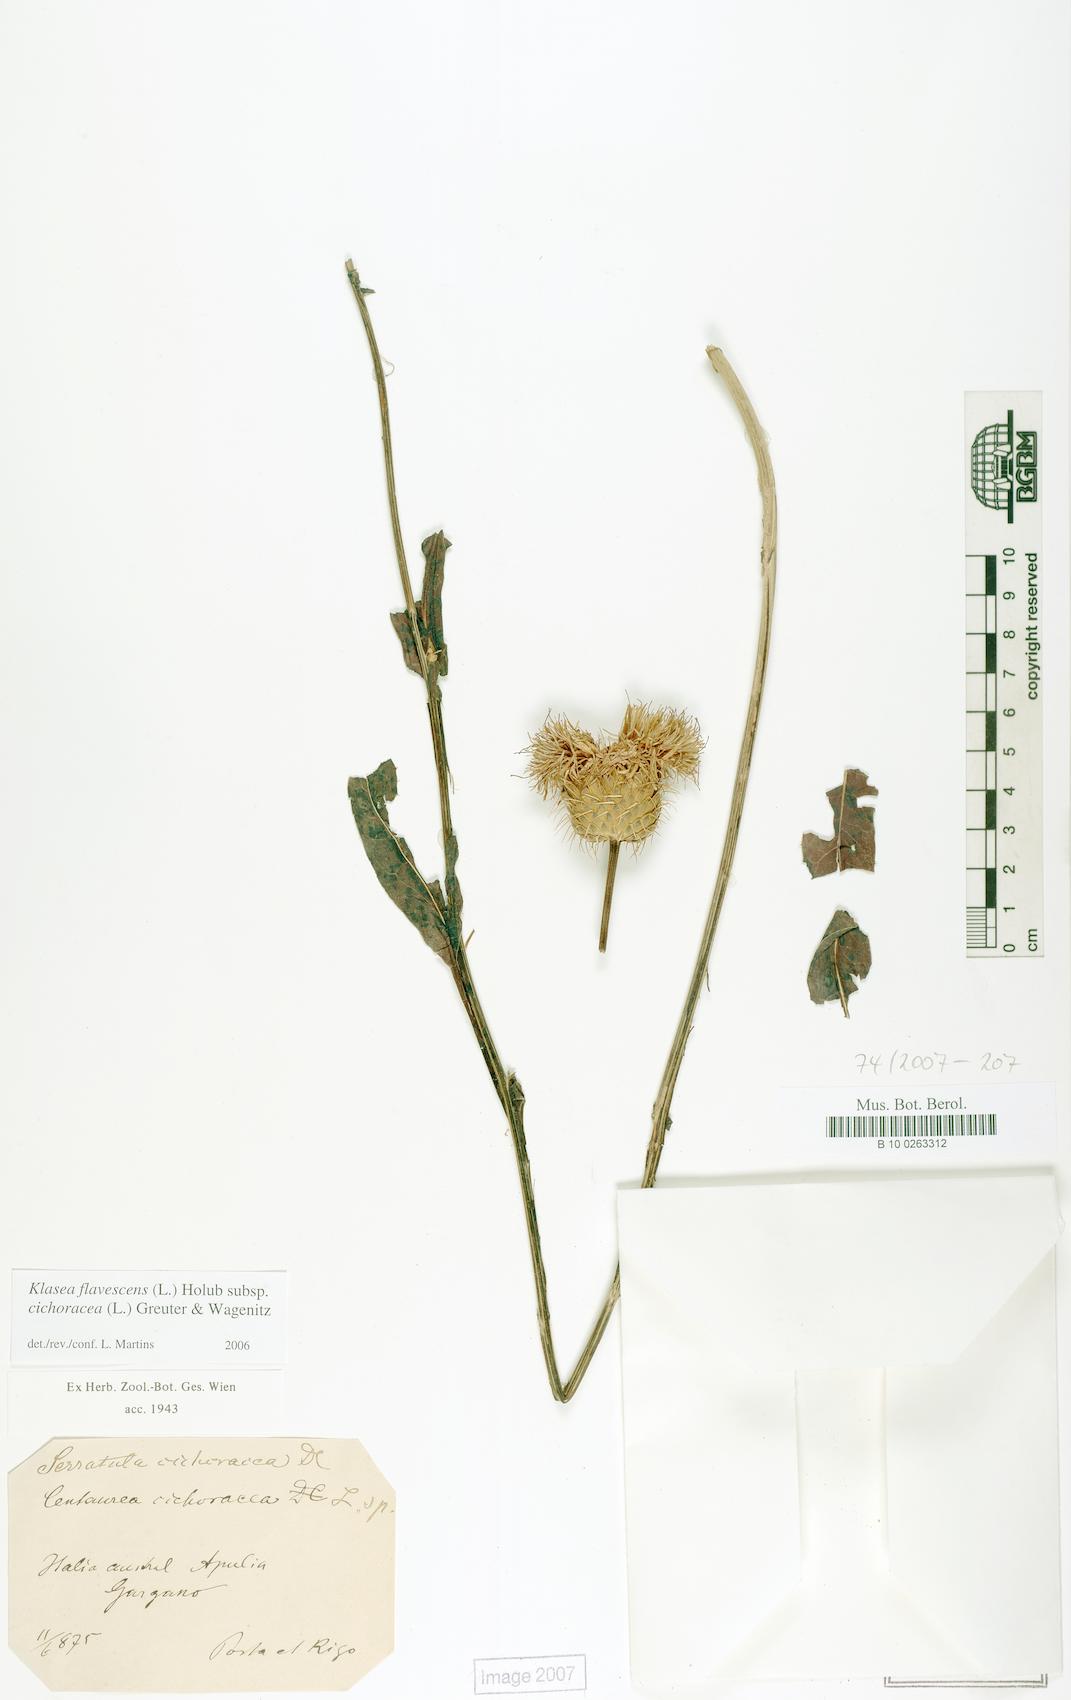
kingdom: Plantae
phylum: Tracheophyta
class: Magnoliopsida
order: Asterales
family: Asteraceae
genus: Klasea
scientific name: Klasea flavescens
